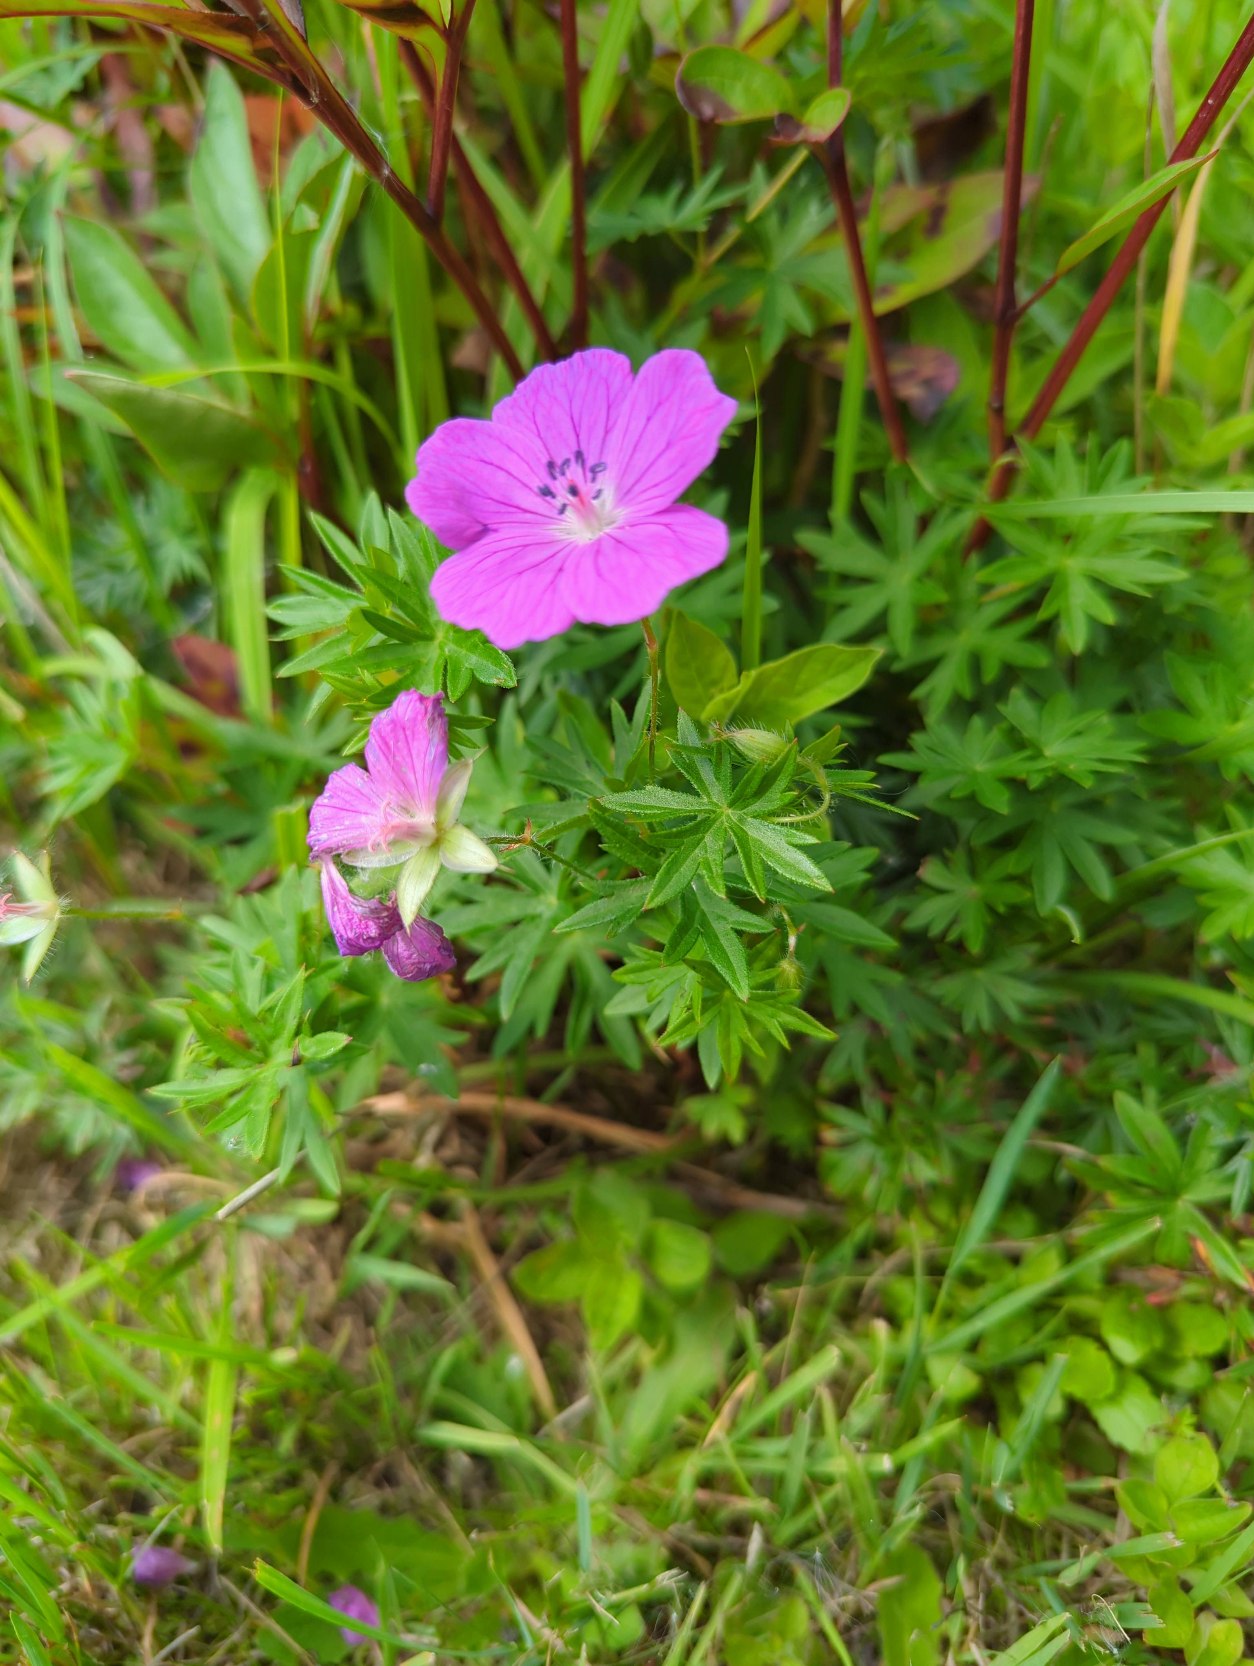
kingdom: Plantae
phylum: Tracheophyta
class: Magnoliopsida
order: Geraniales
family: Geraniaceae
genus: Geranium
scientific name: Geranium sanguineum
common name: Blodrød storkenæb
